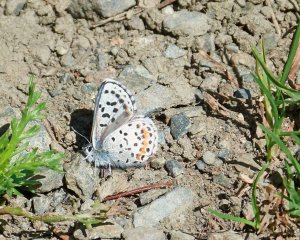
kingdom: Animalia
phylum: Arthropoda
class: Insecta
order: Lepidoptera
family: Lycaenidae
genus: Euphilotes
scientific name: Euphilotes battoides
